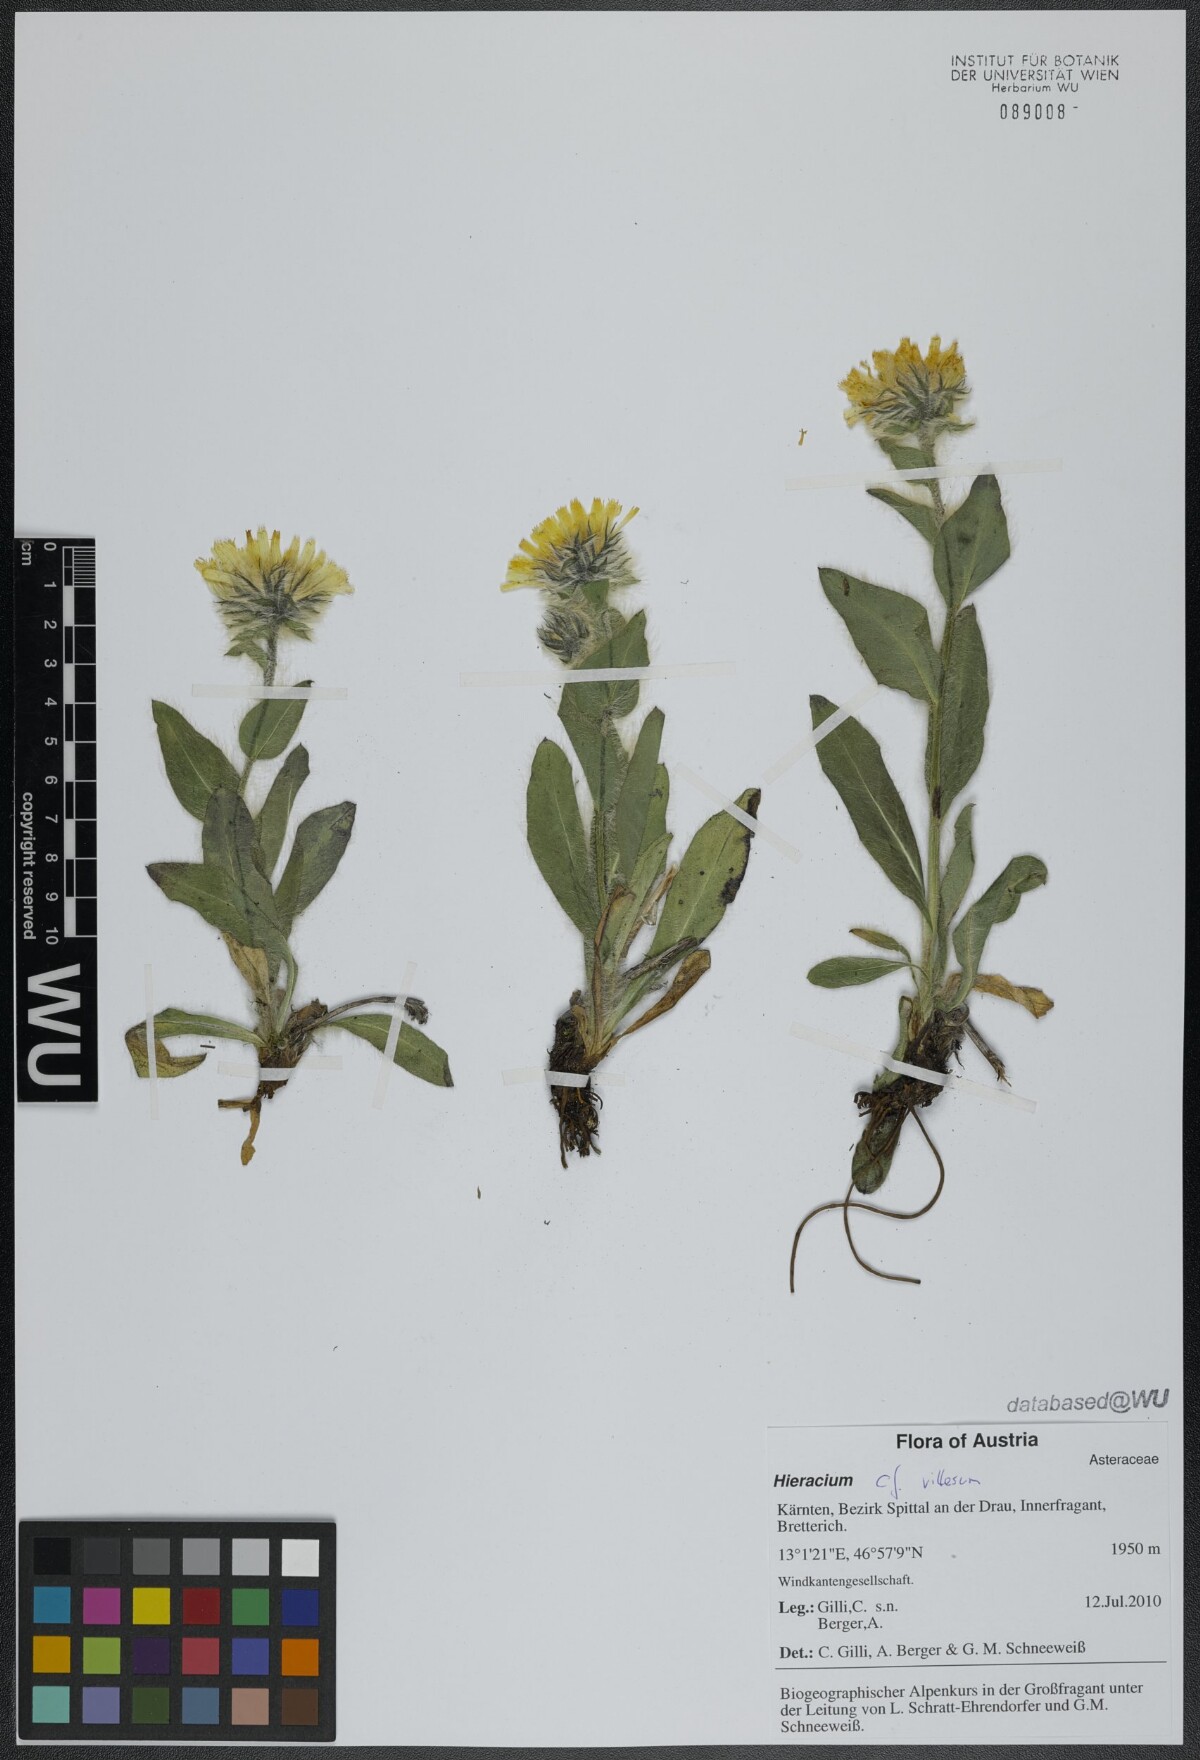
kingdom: Plantae
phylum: Tracheophyta
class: Magnoliopsida
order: Asterales
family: Asteraceae
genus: Hieracium
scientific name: Hieracium villosum
